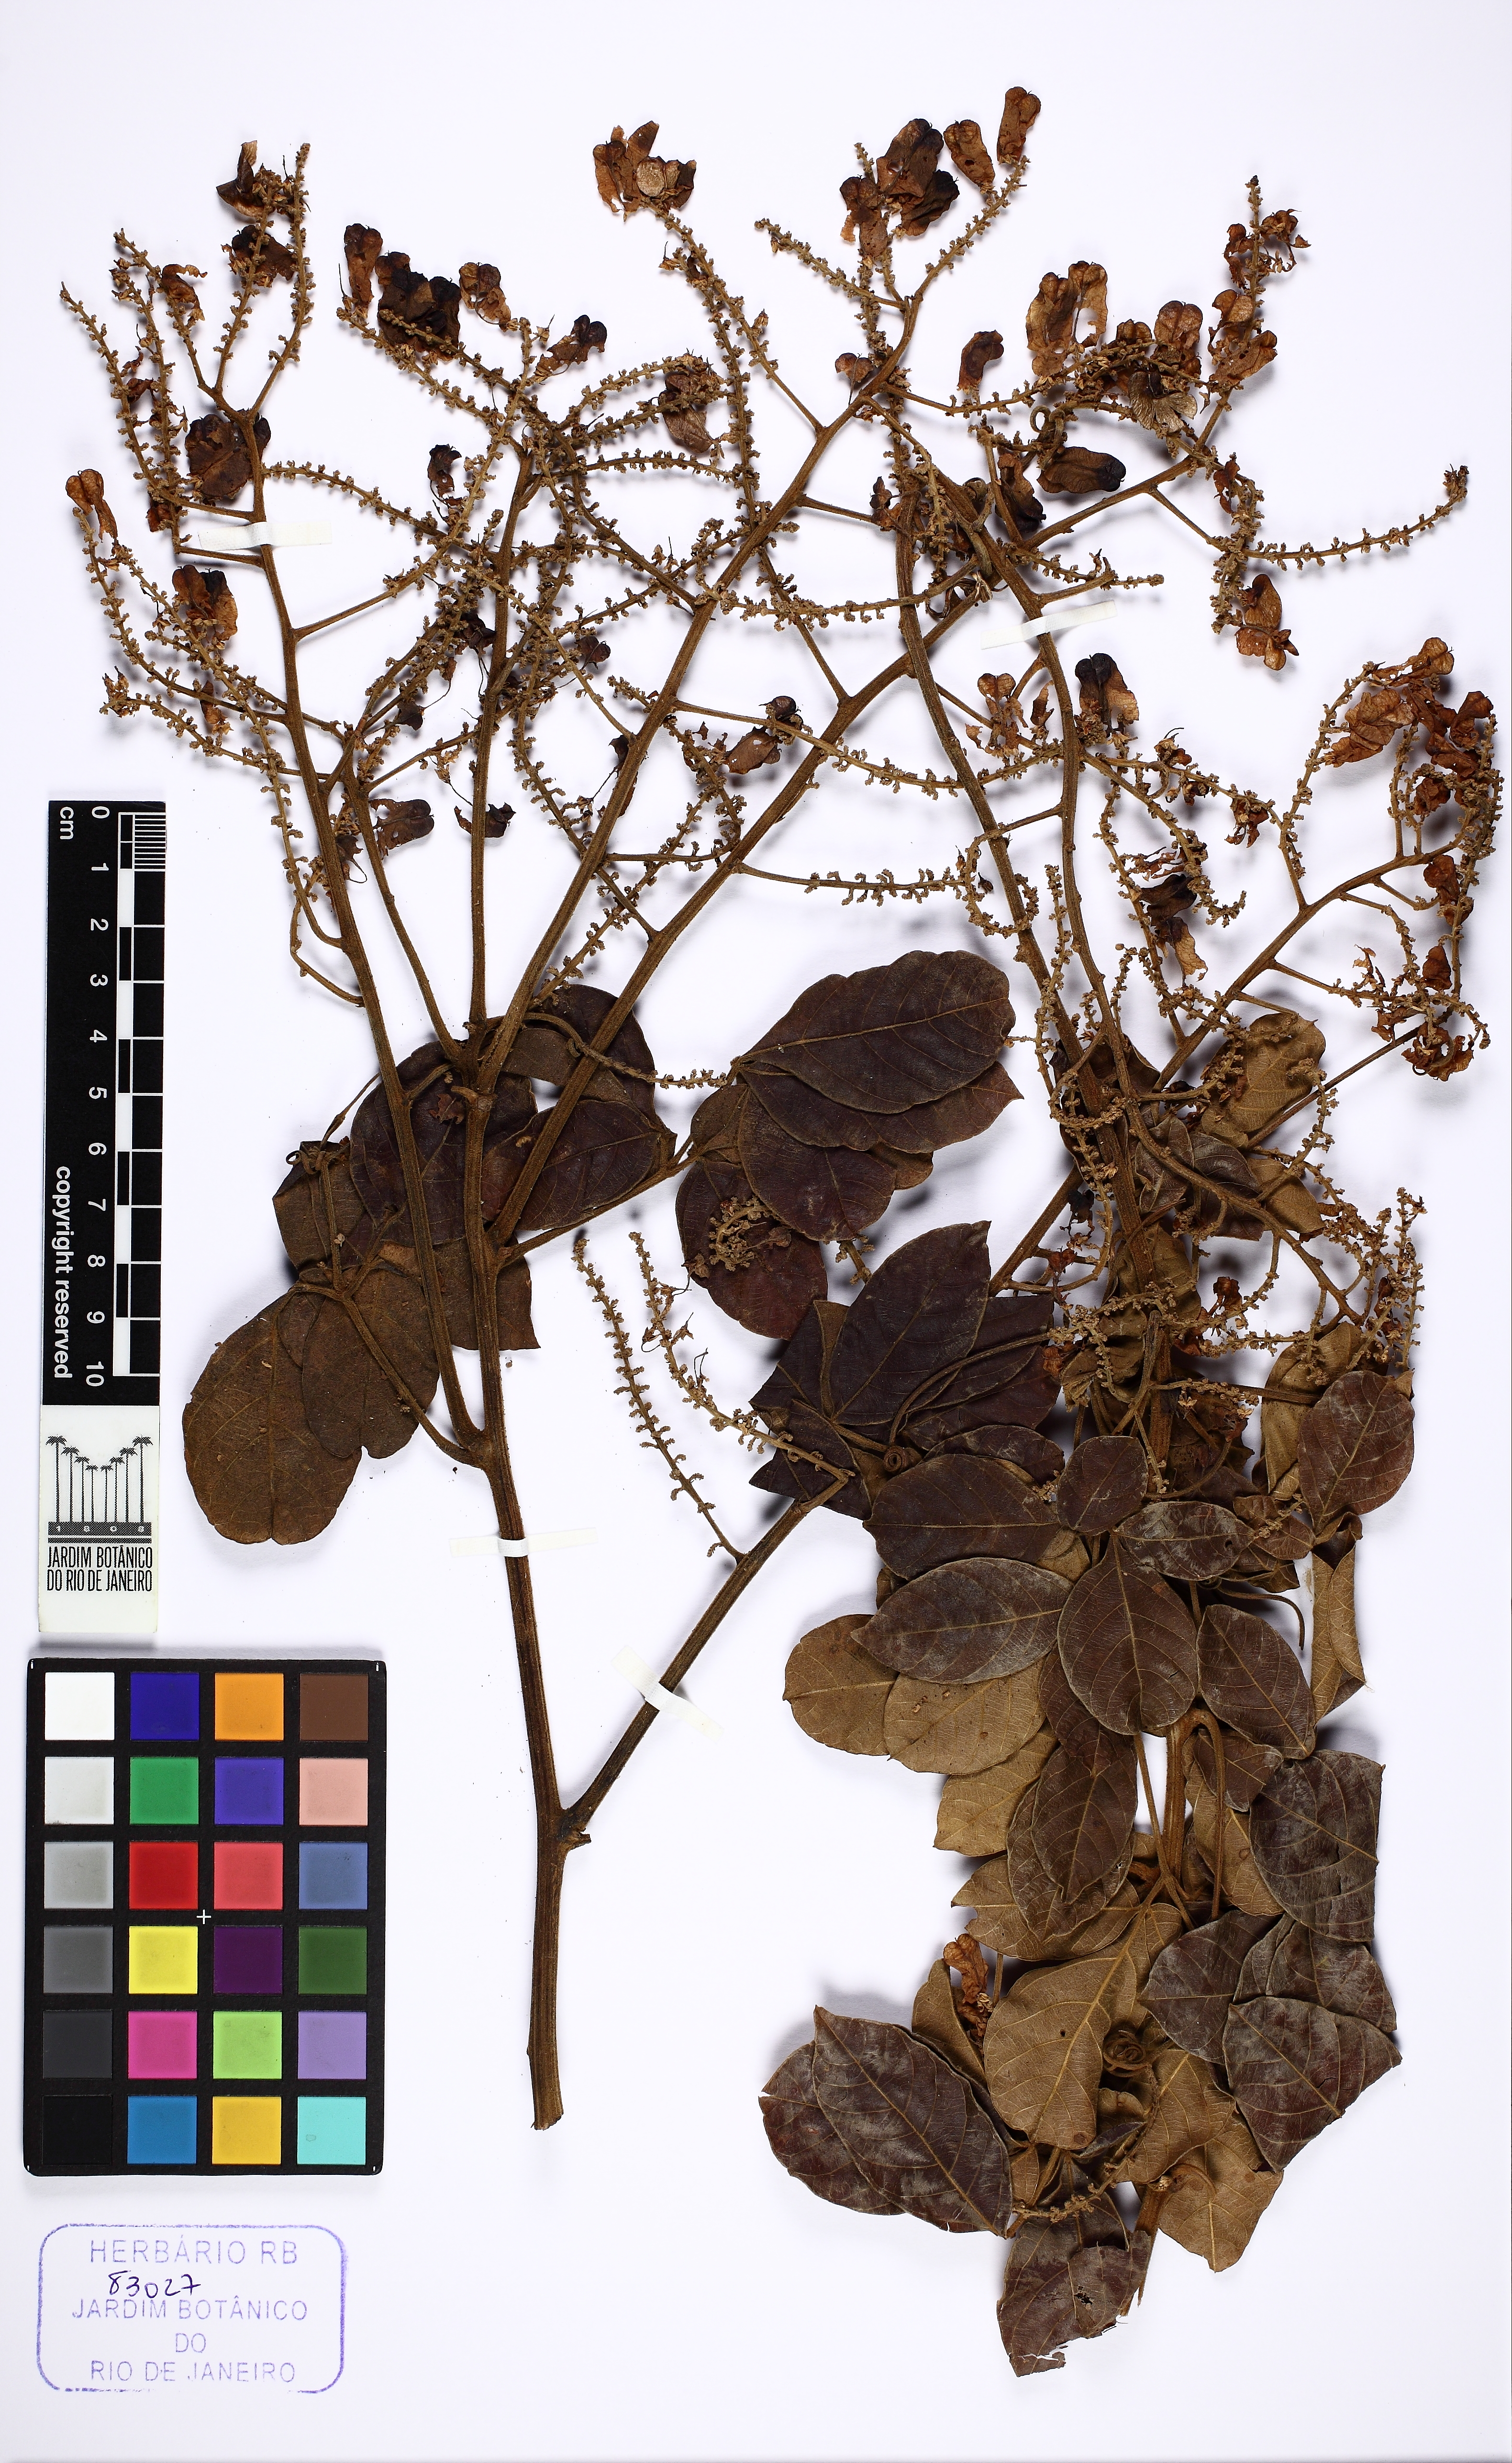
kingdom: Plantae
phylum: Tracheophyta
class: Magnoliopsida
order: Sapindales
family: Sapindaceae
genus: Serjania
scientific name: Serjania ovalifolia
